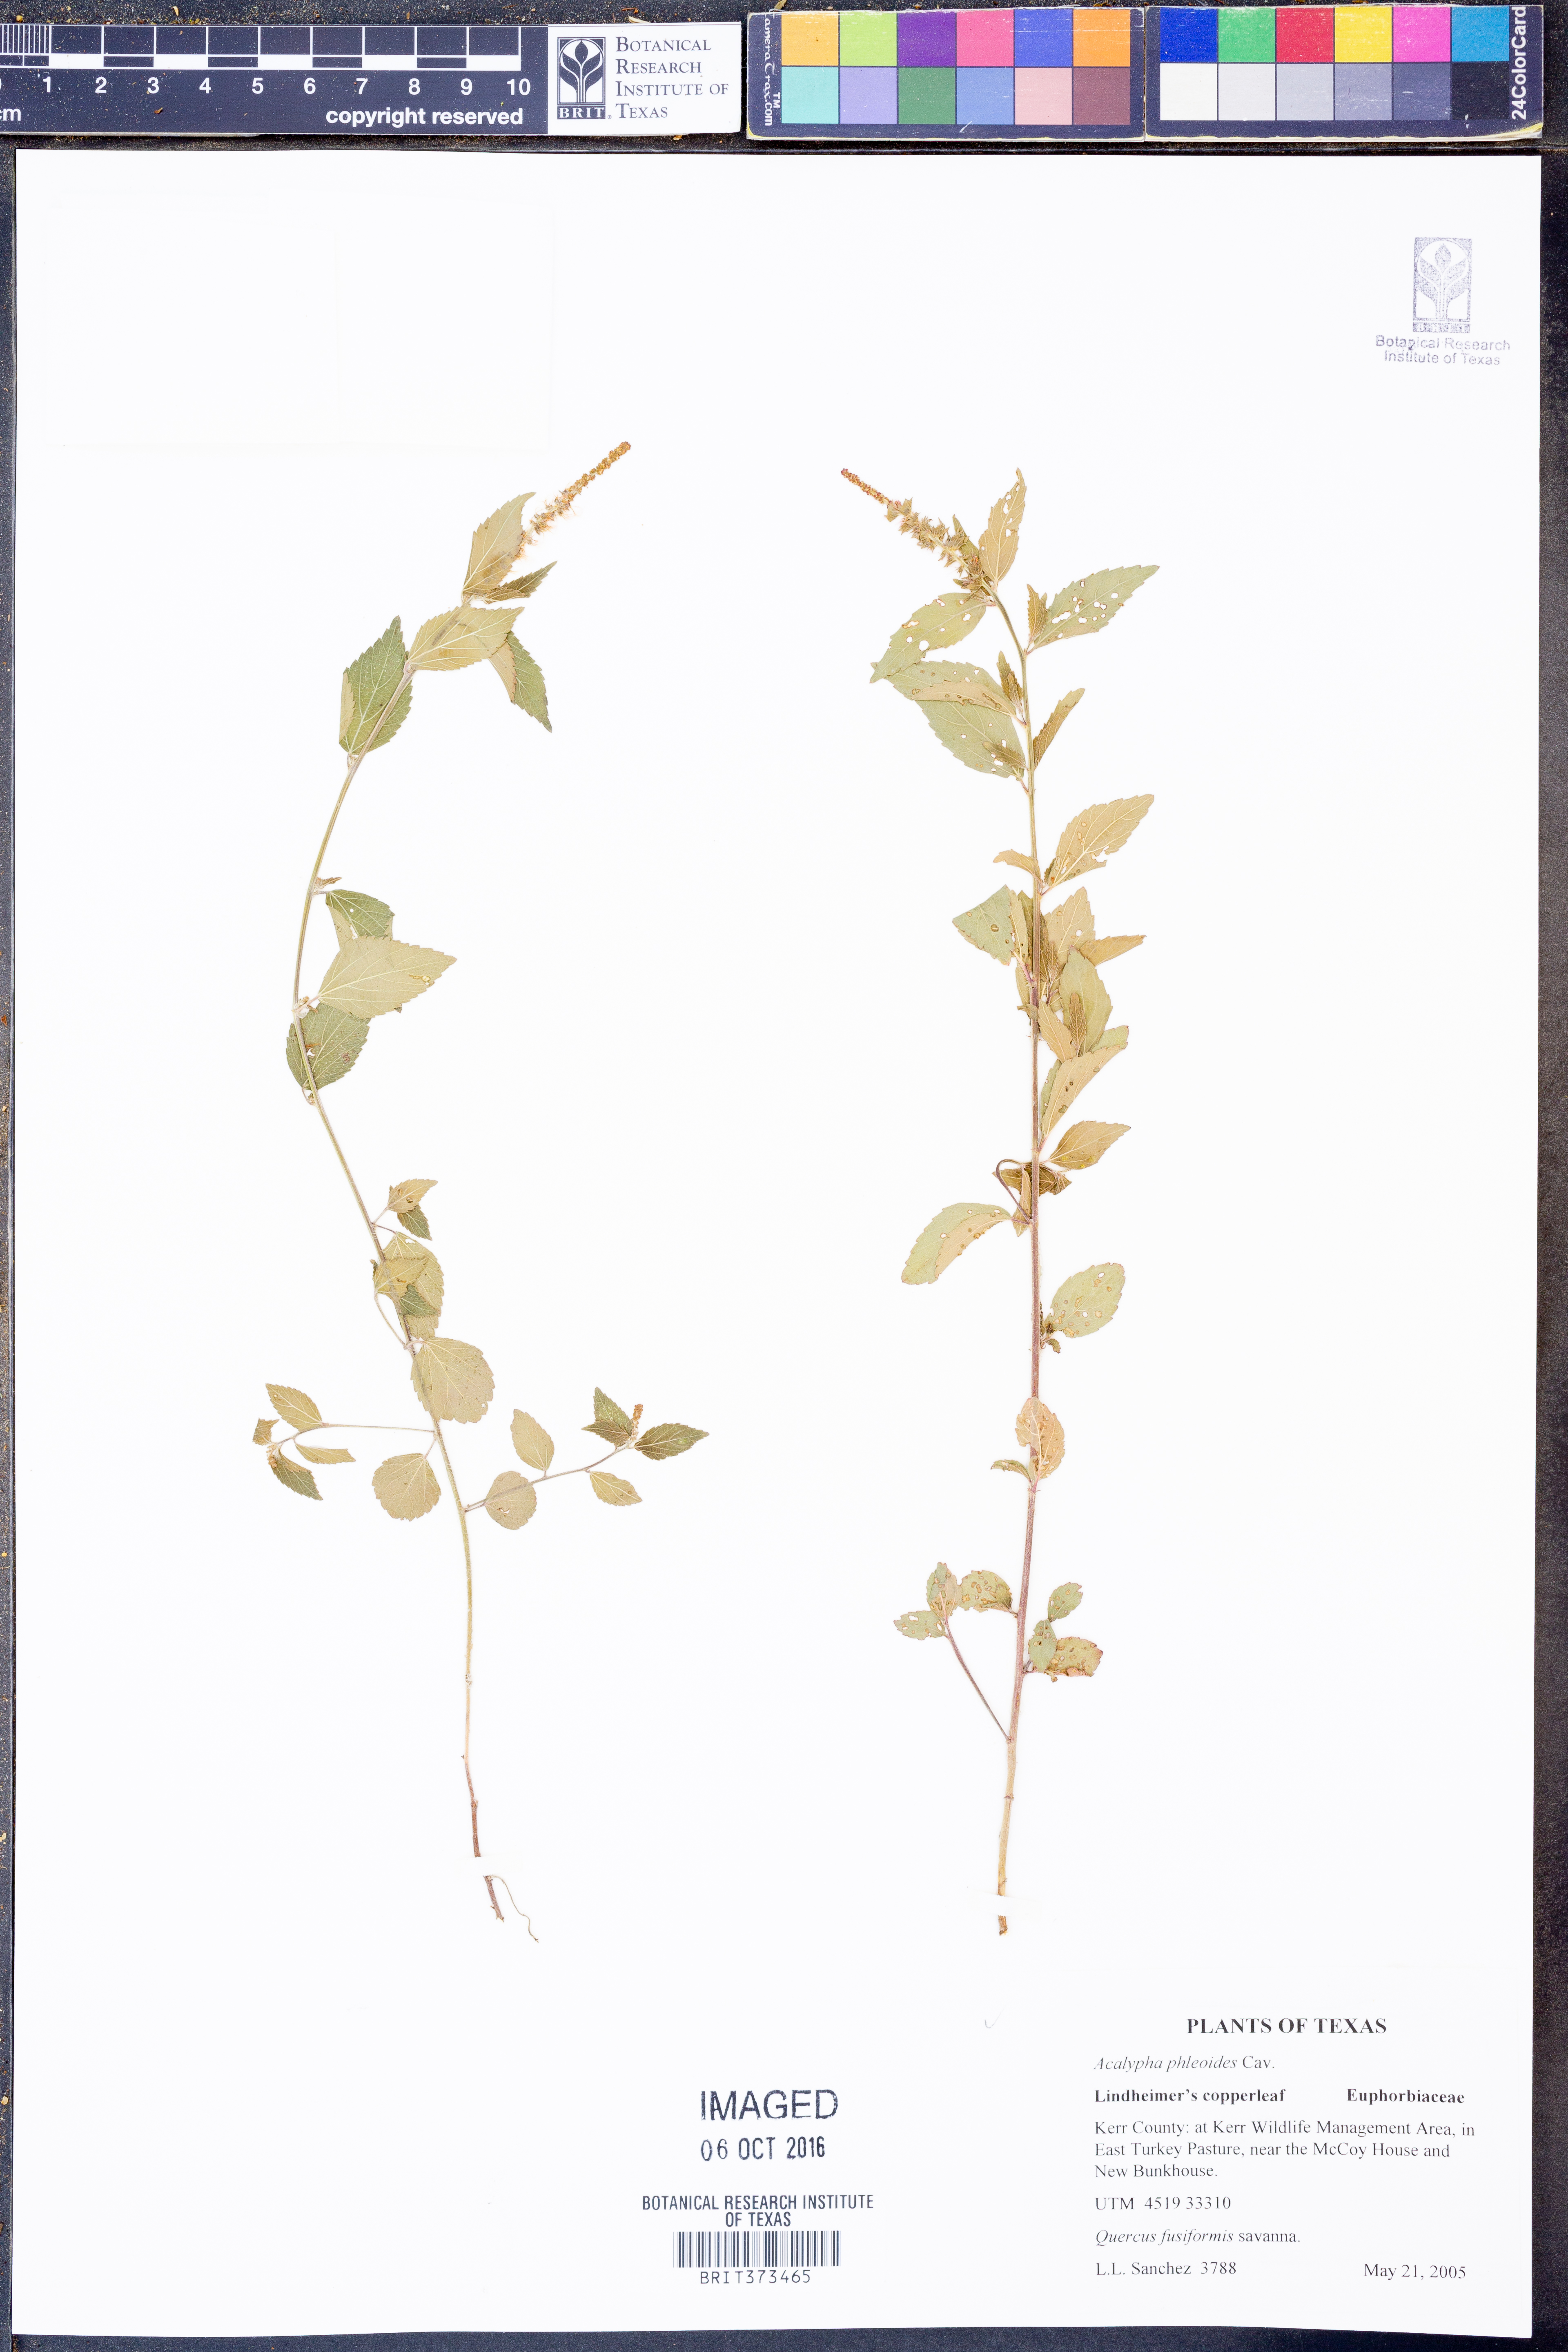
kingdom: Plantae
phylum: Tracheophyta
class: Magnoliopsida
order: Malpighiales
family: Euphorbiaceae
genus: Acalypha
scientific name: Acalypha phleoides
